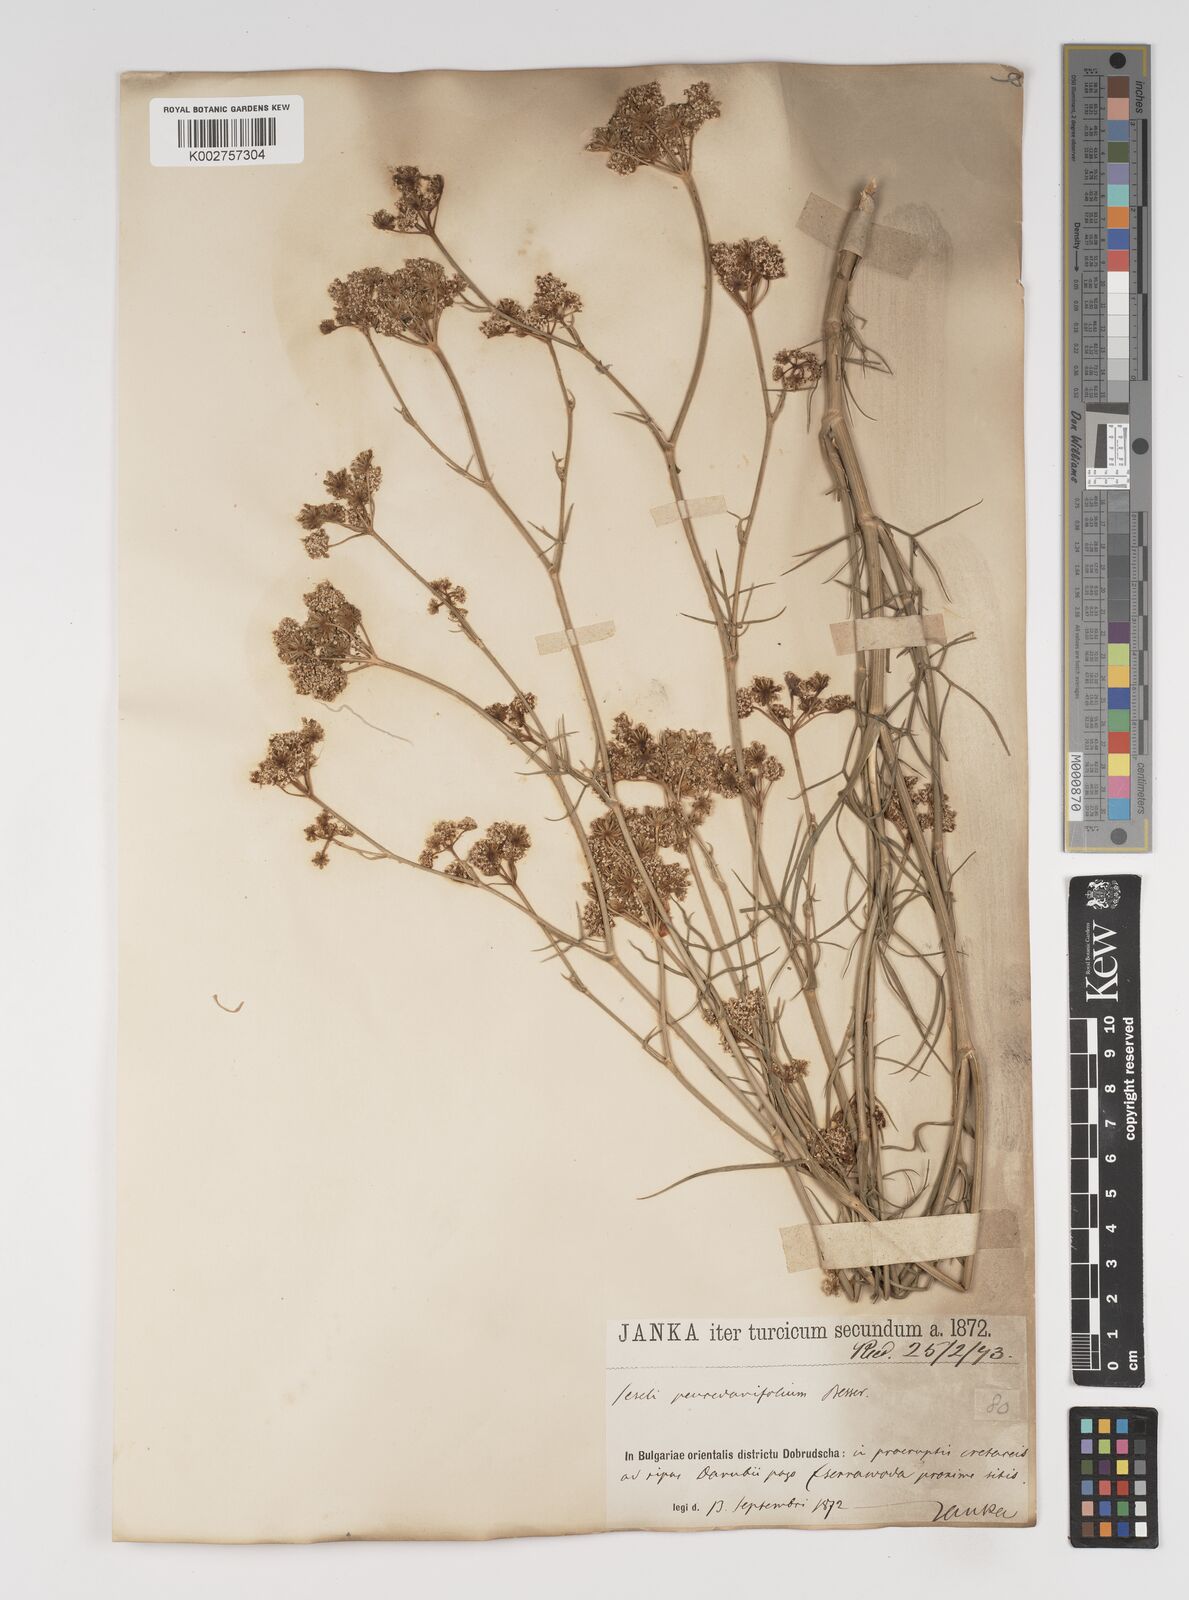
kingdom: Plantae
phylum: Tracheophyta
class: Magnoliopsida
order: Apiales
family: Apiaceae
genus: Seseli
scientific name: Seseli besserianum
